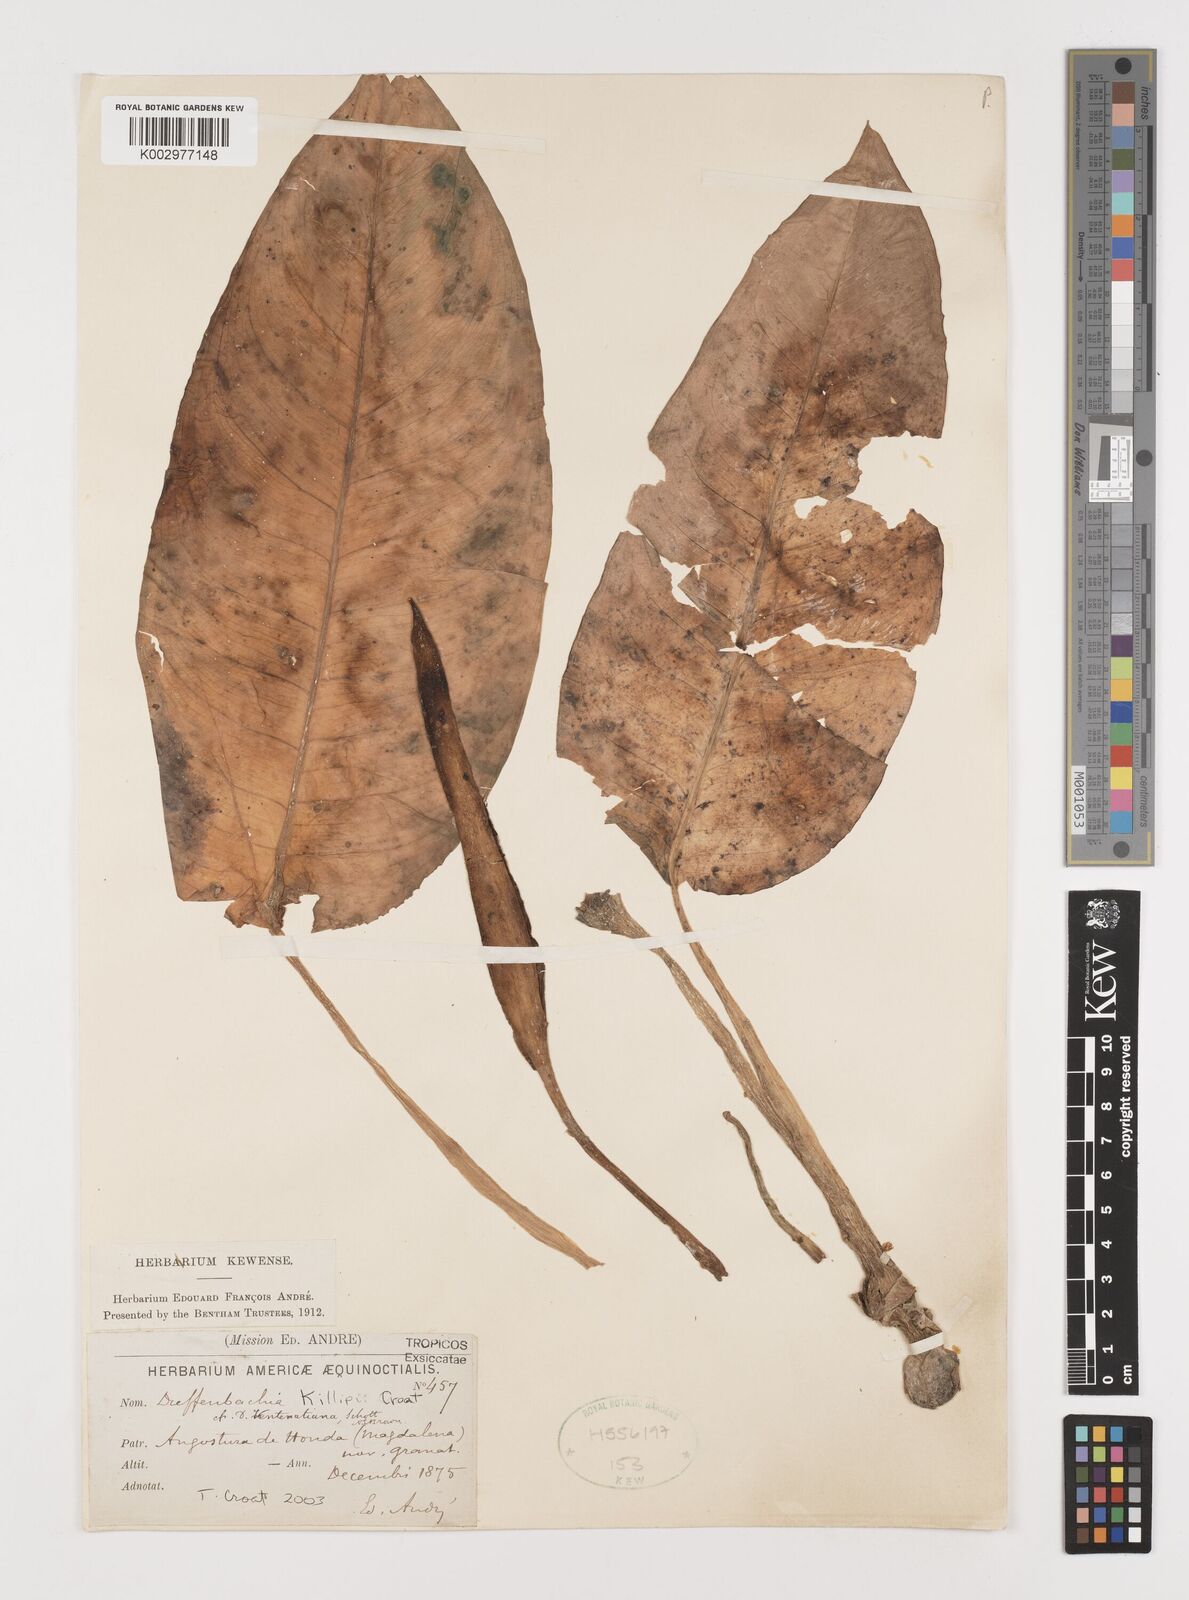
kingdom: Plantae
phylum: Tracheophyta
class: Liliopsida
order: Alismatales
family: Araceae
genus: Dieffenbachia
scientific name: Dieffenbachia killipii
